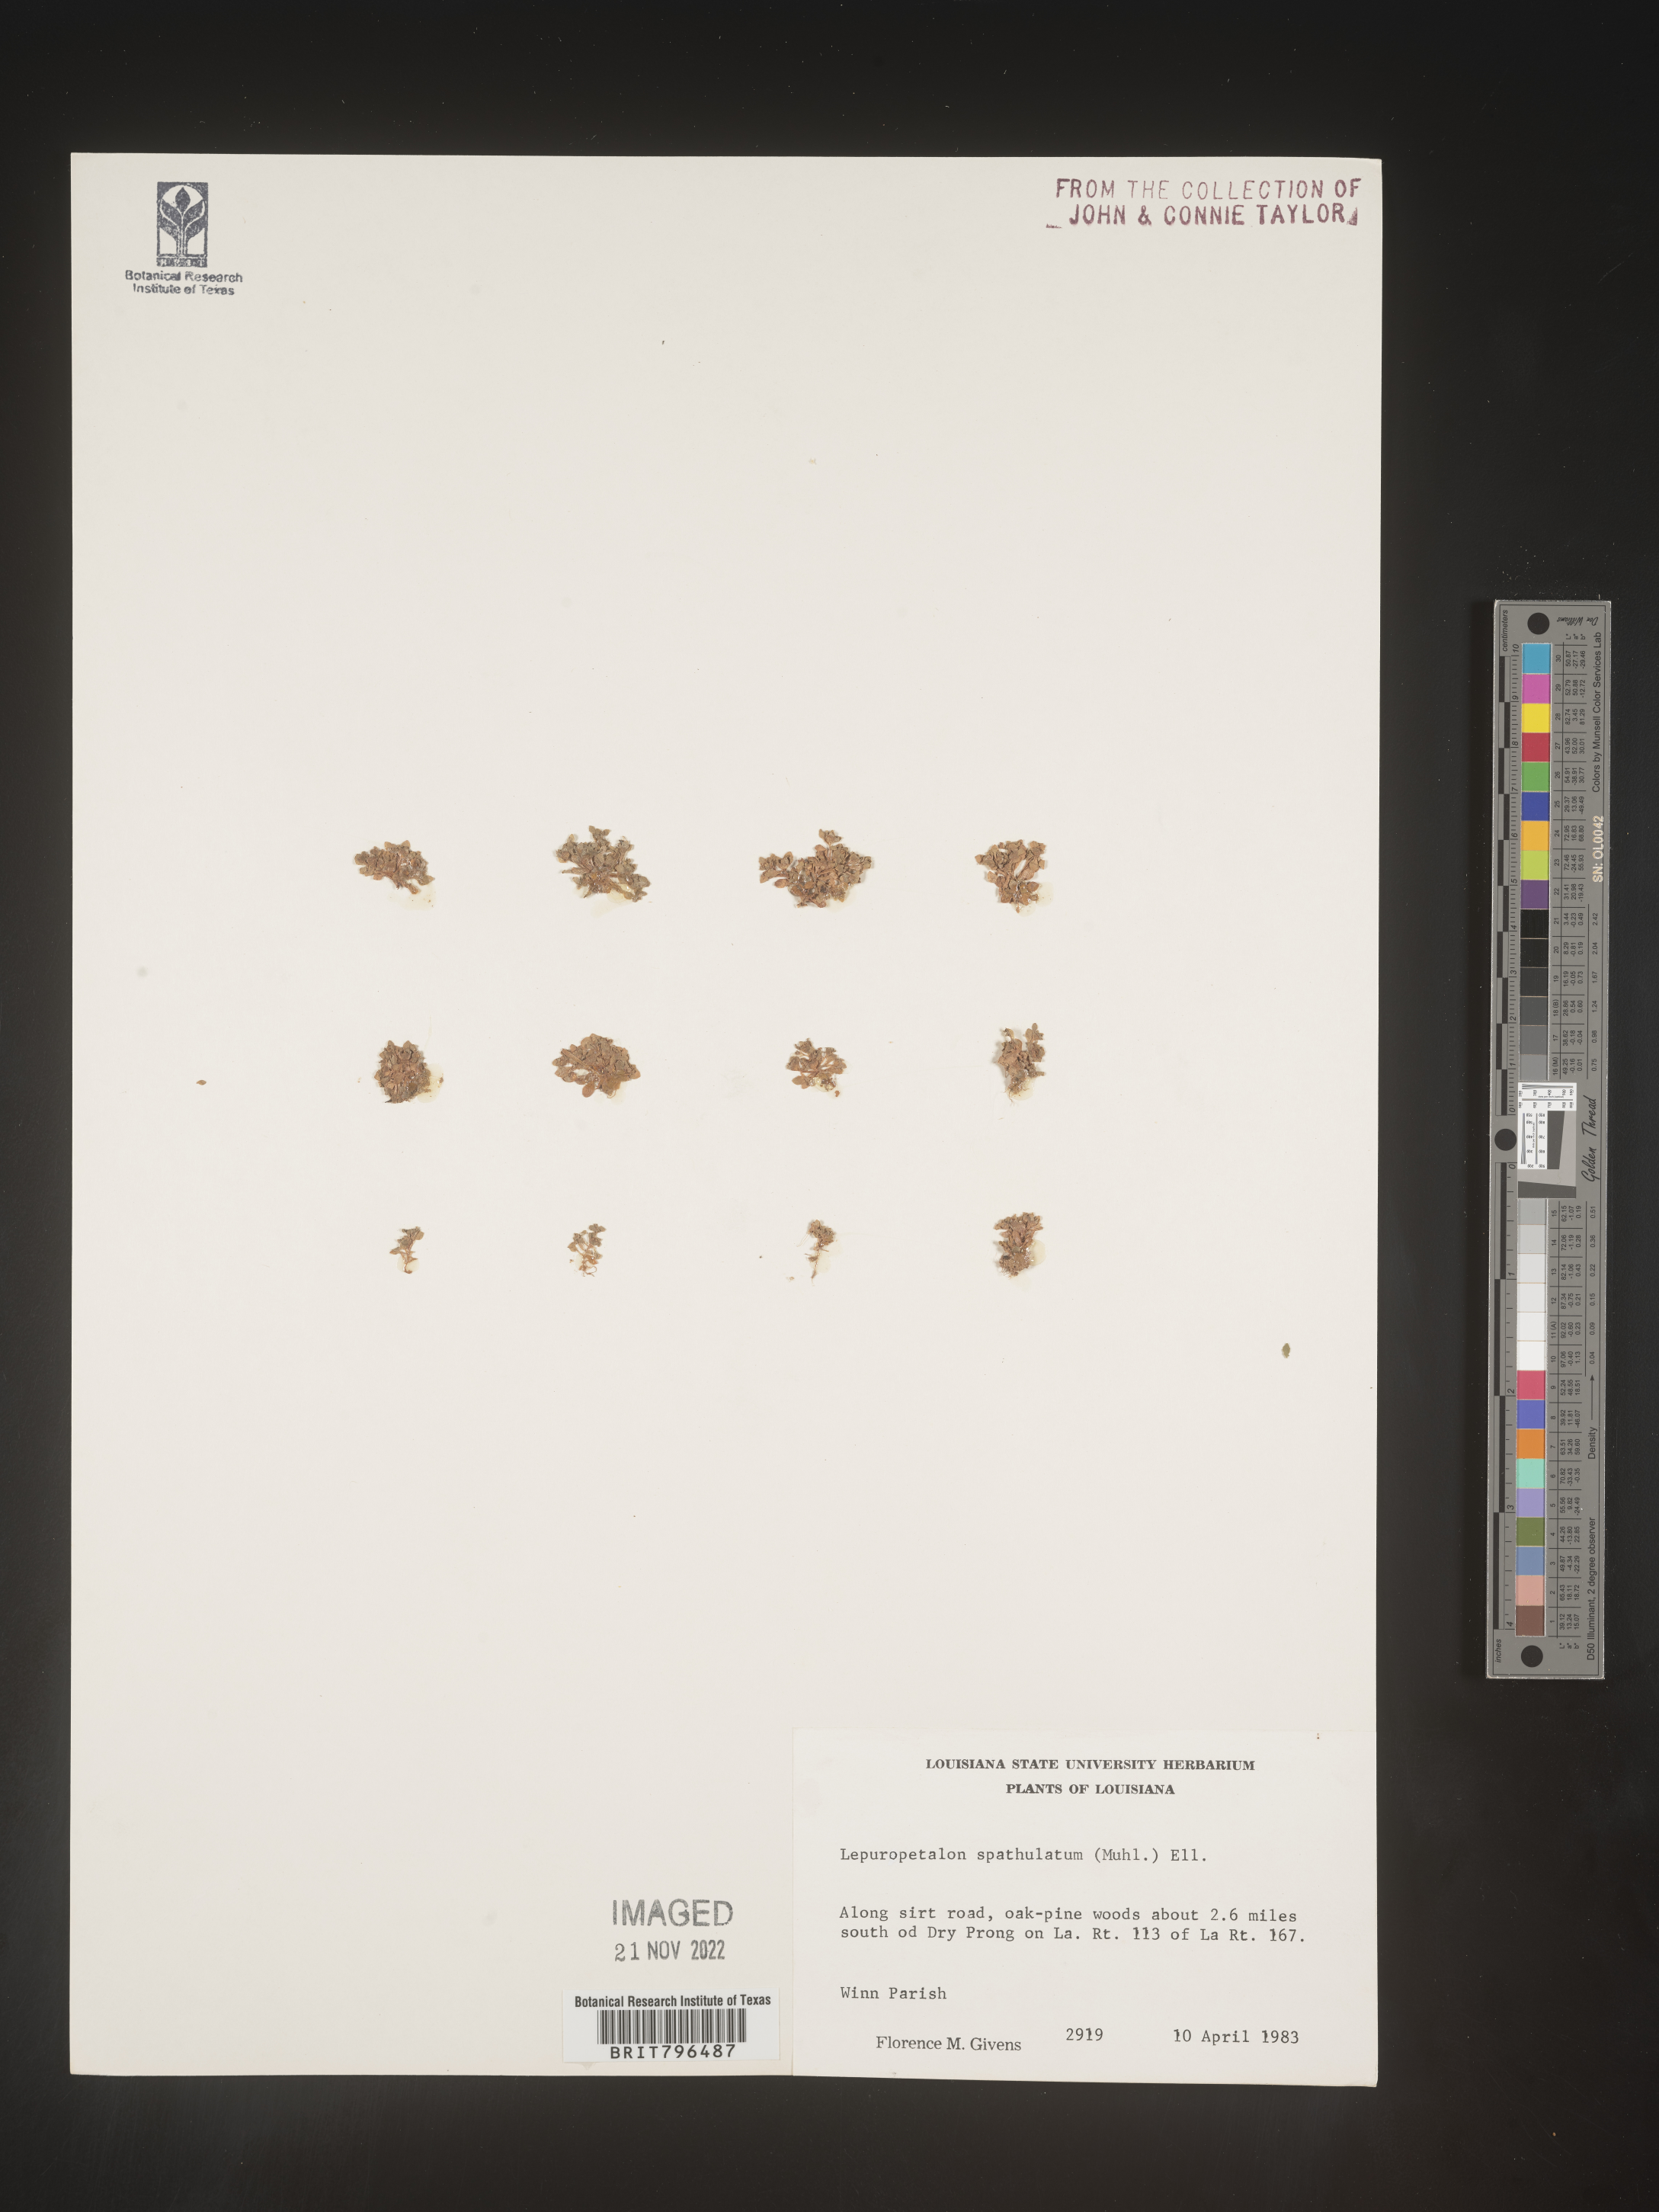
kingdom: Plantae
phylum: Tracheophyta
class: Magnoliopsida
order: Celastrales
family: Parnassiaceae
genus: Lepuropetalon
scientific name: Lepuropetalon
